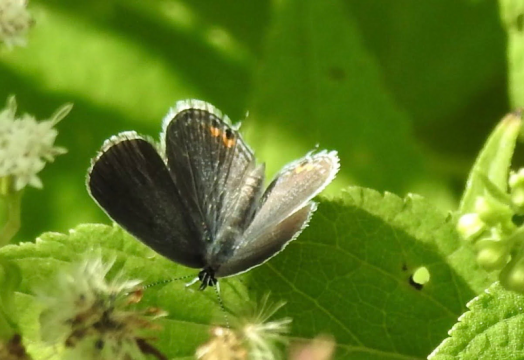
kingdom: Animalia
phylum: Arthropoda
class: Insecta
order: Lepidoptera
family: Lycaenidae
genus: Elkalyce
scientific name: Elkalyce comyntas
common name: Eastern Tailed-Blue
